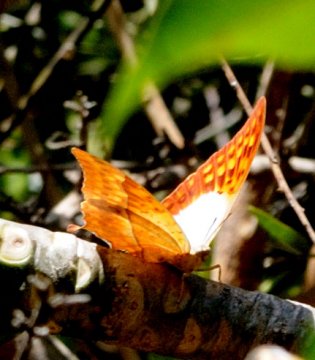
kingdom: Animalia
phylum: Arthropoda
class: Insecta
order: Lepidoptera
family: Nymphalidae
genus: Charaxes
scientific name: Charaxes varanes
